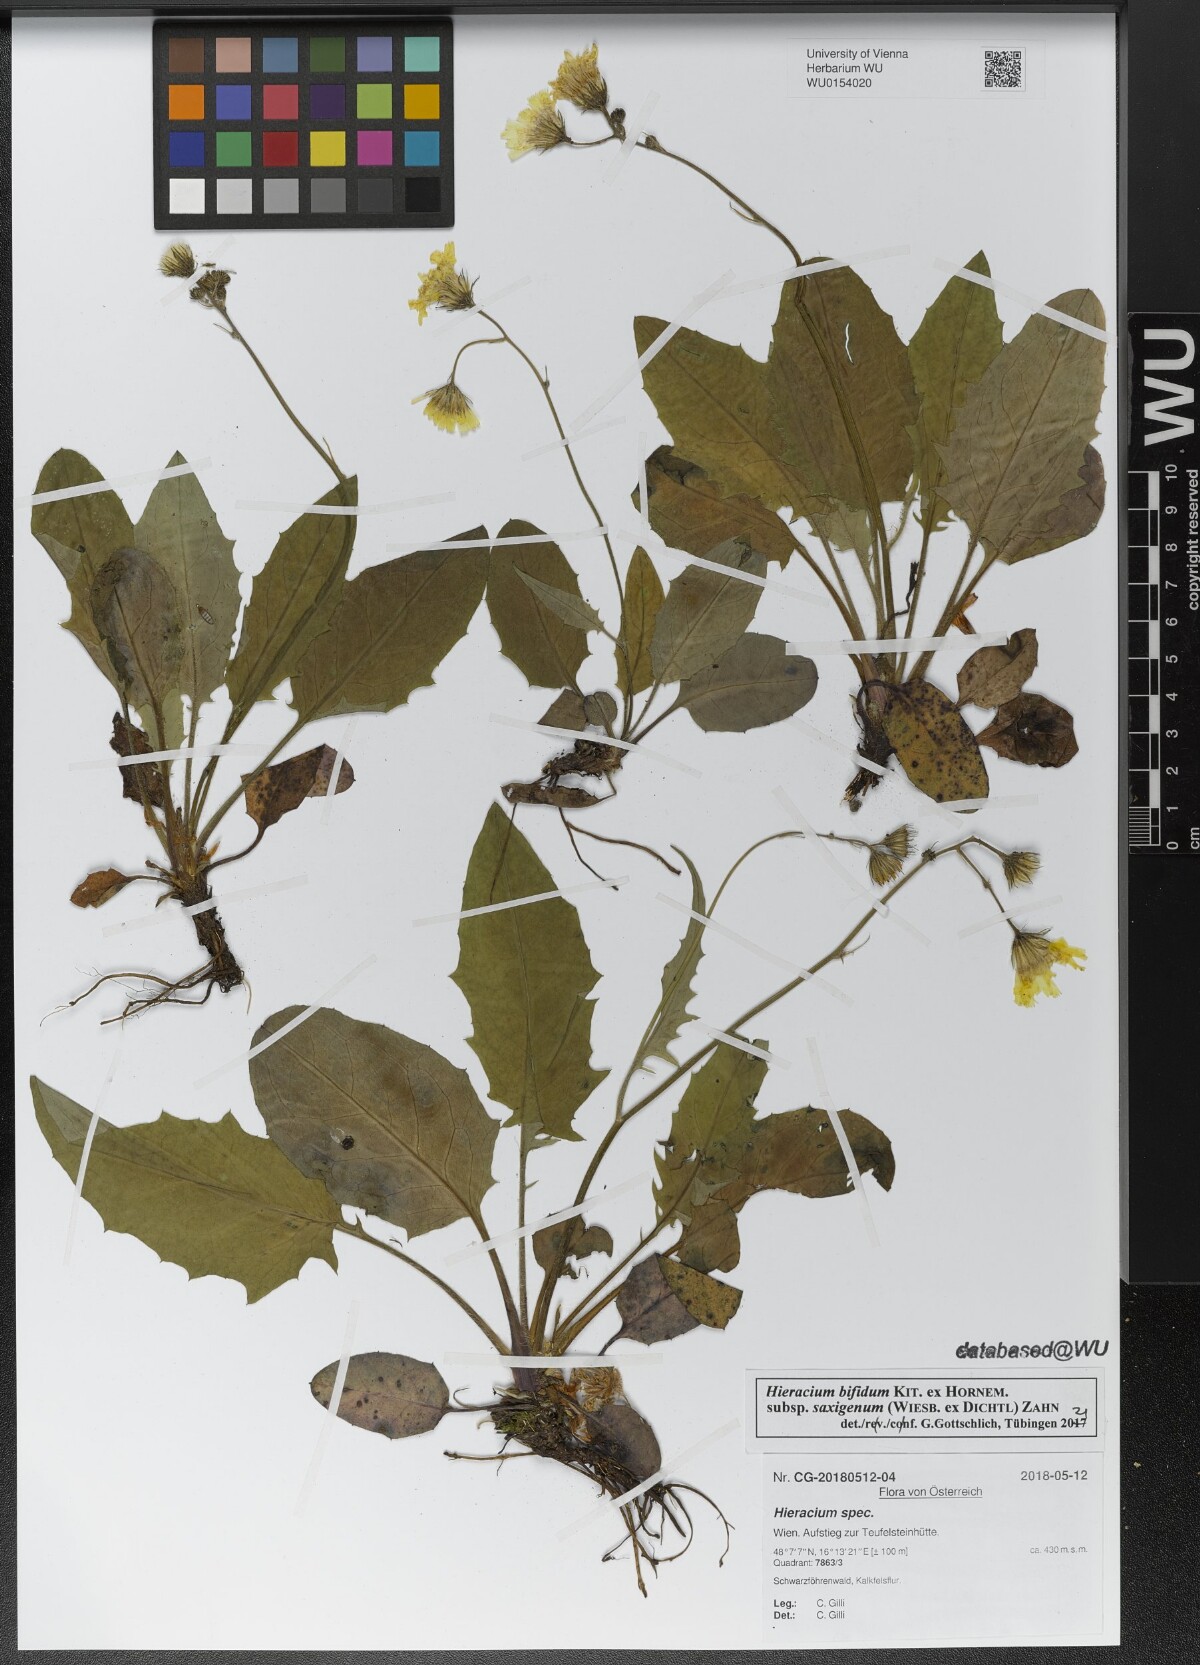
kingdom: Plantae
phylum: Tracheophyta
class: Magnoliopsida
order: Asterales
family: Asteraceae
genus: Hieracium
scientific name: Hieracium bifidum
